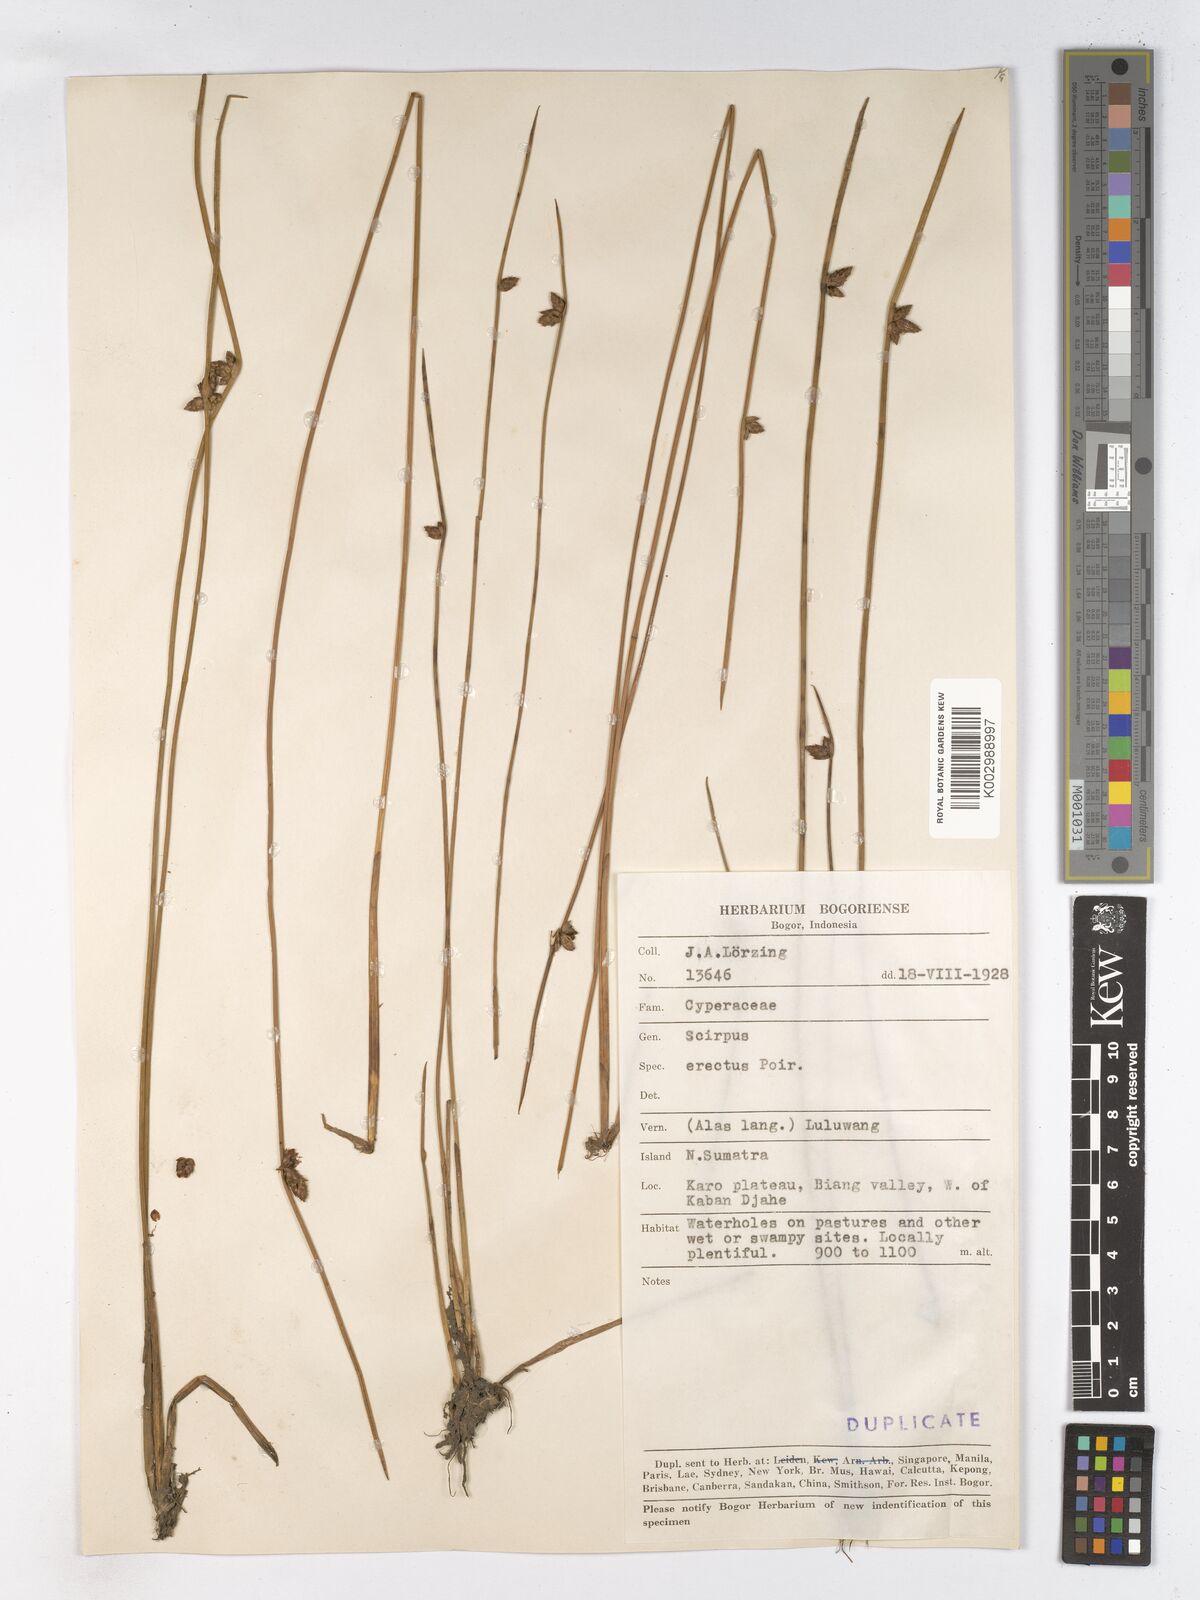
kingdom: Plantae
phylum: Tracheophyta
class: Liliopsida
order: Poales
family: Cyperaceae
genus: Schoenoplectiella
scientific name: Schoenoplectiella juncoides
